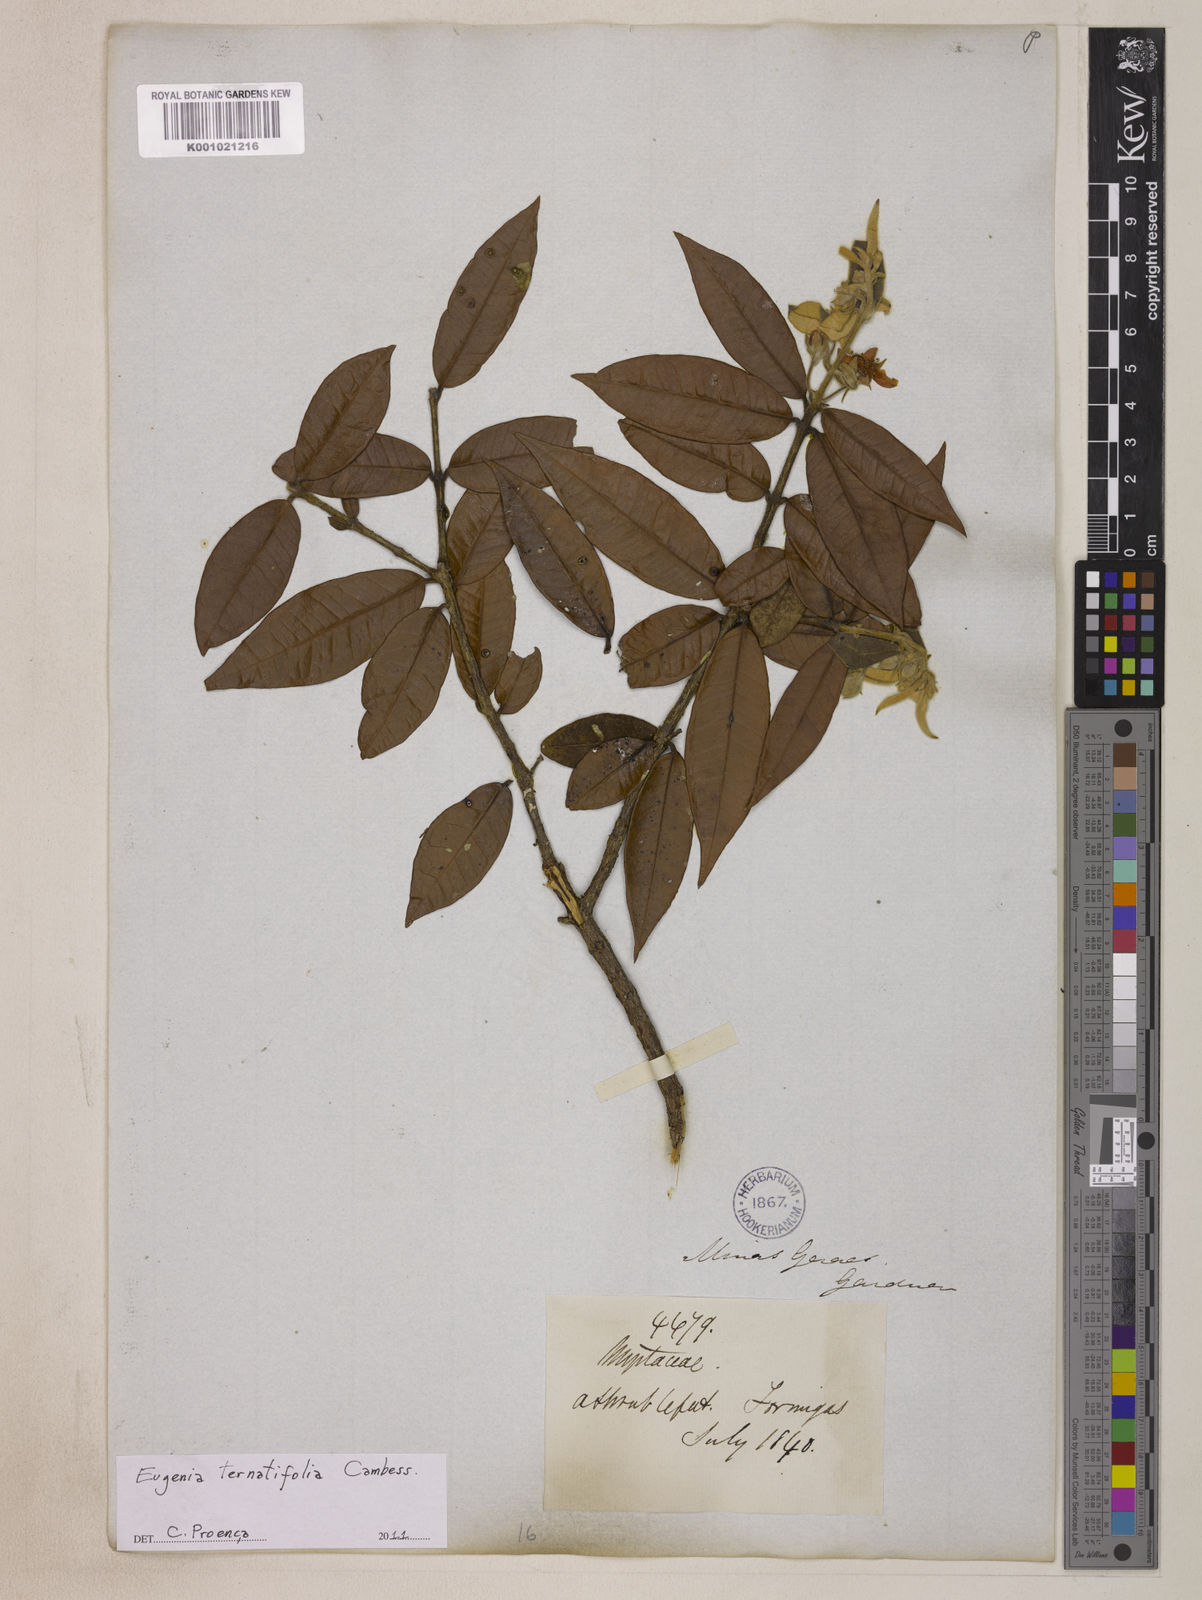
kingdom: Plantae
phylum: Tracheophyta
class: Magnoliopsida
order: Myrtales
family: Myrtaceae
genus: Eugenia
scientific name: Eugenia ternatifolia
